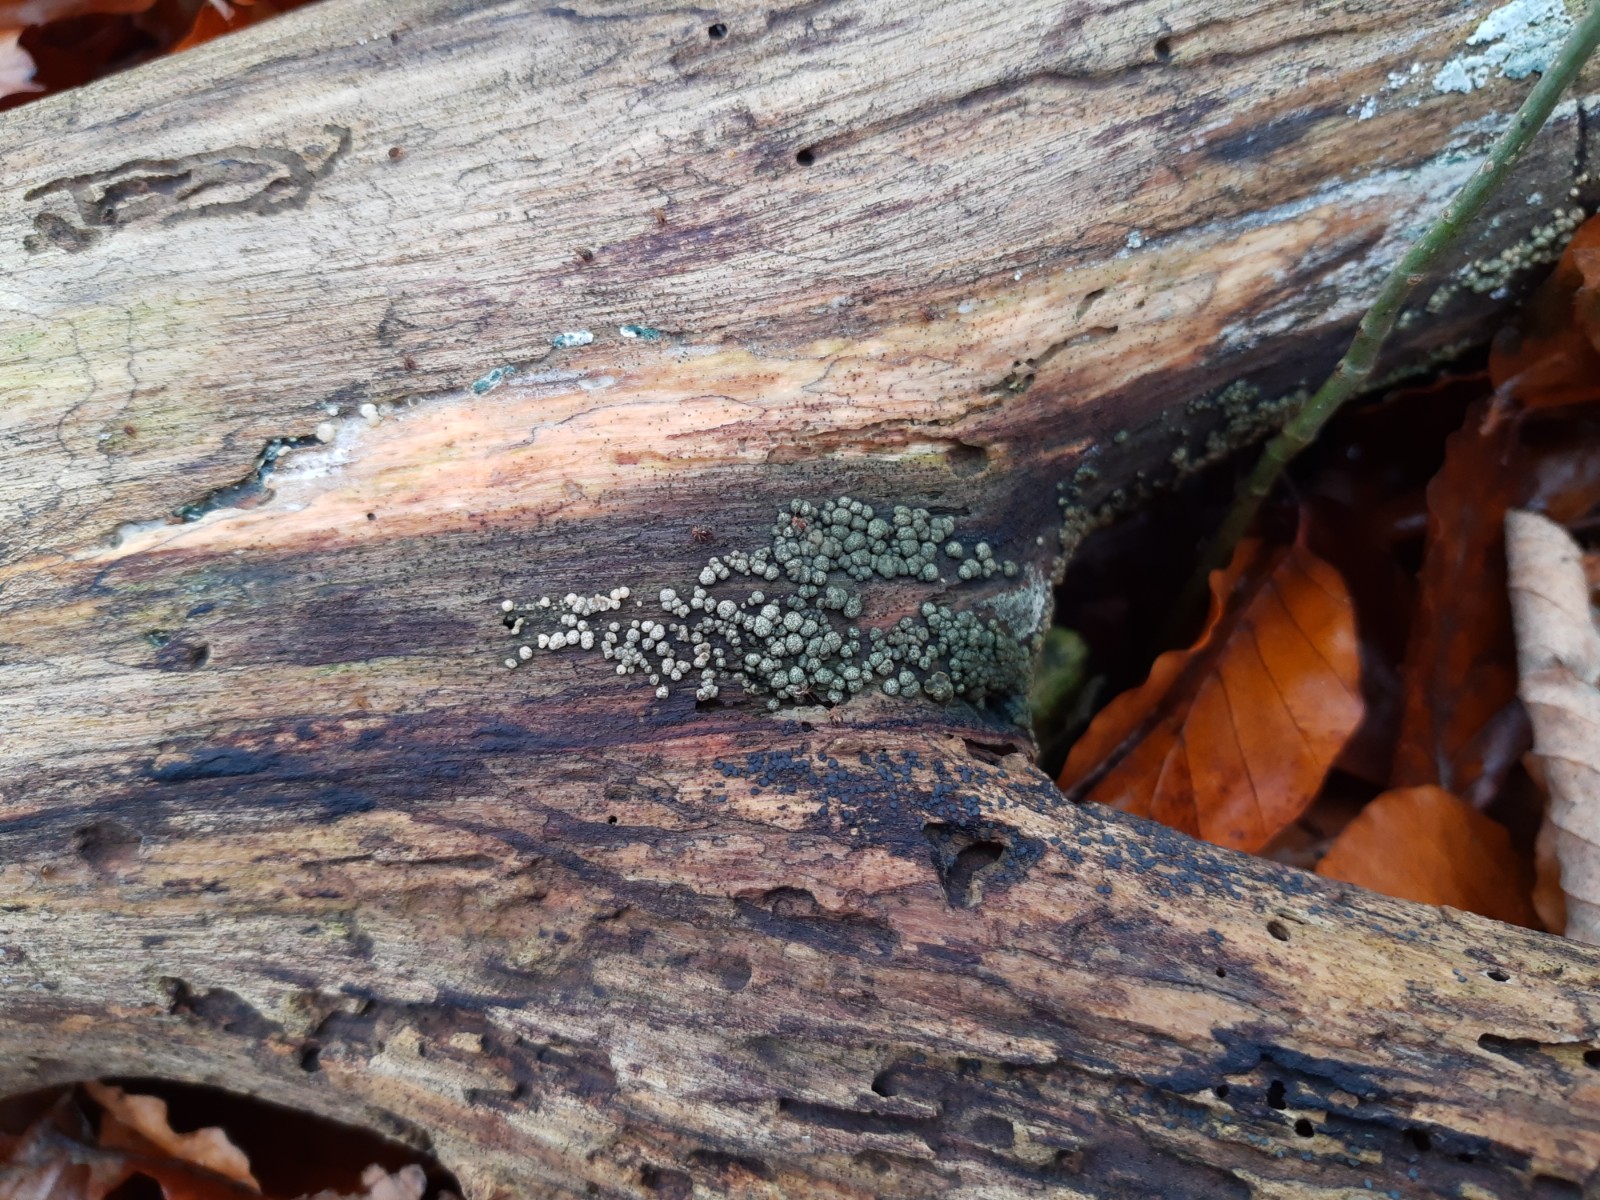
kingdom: Fungi
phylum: Ascomycota
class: Sordariomycetes
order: Hypocreales
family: Hypocreaceae
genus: Trichoderma
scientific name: Trichoderma strictipile
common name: grønprikket kødkerne
